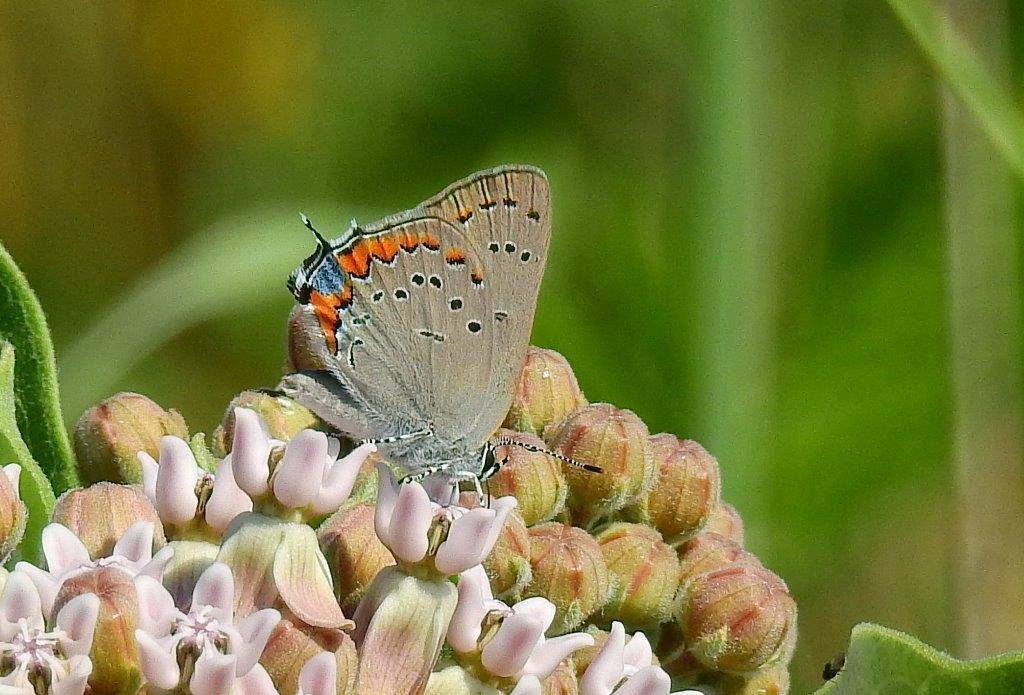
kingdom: Animalia
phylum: Arthropoda
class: Insecta
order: Lepidoptera
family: Lycaenidae
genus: Strymon
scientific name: Strymon acadica
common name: Acadian Hairstreak
